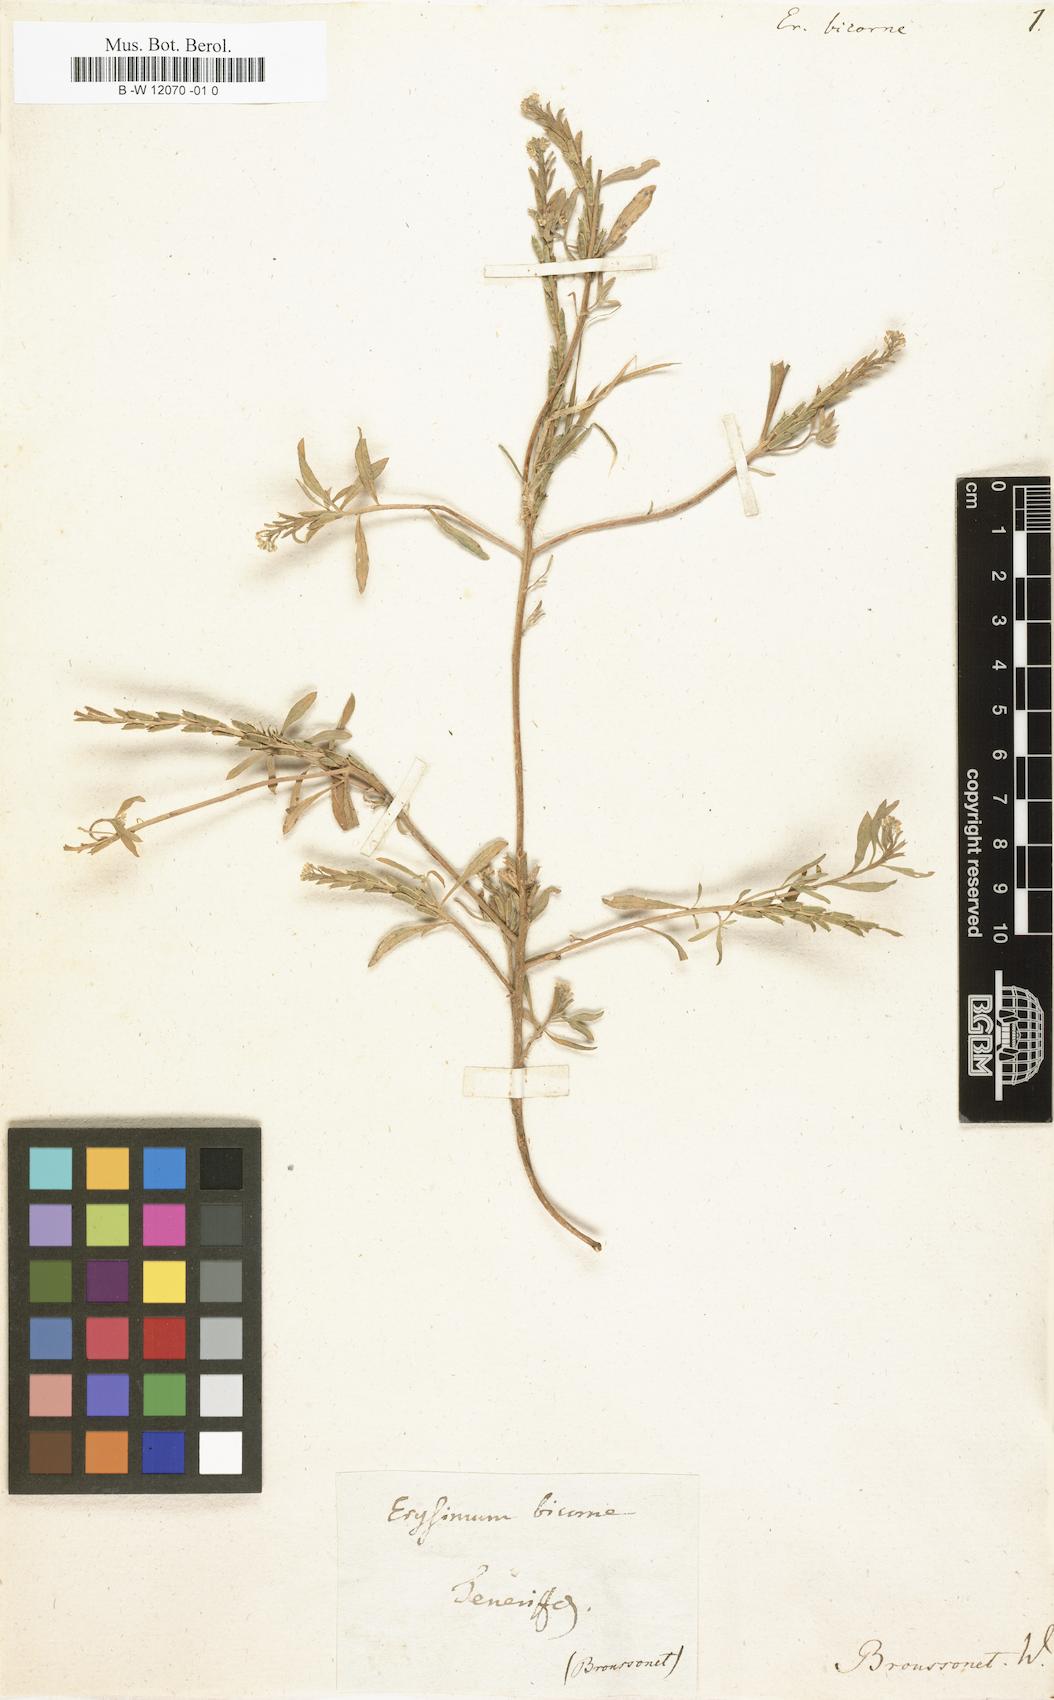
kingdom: Plantae
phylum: Tracheophyta
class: Magnoliopsida
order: Brassicales
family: Brassicaceae
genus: Notoceras
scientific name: Notoceras bicorne
